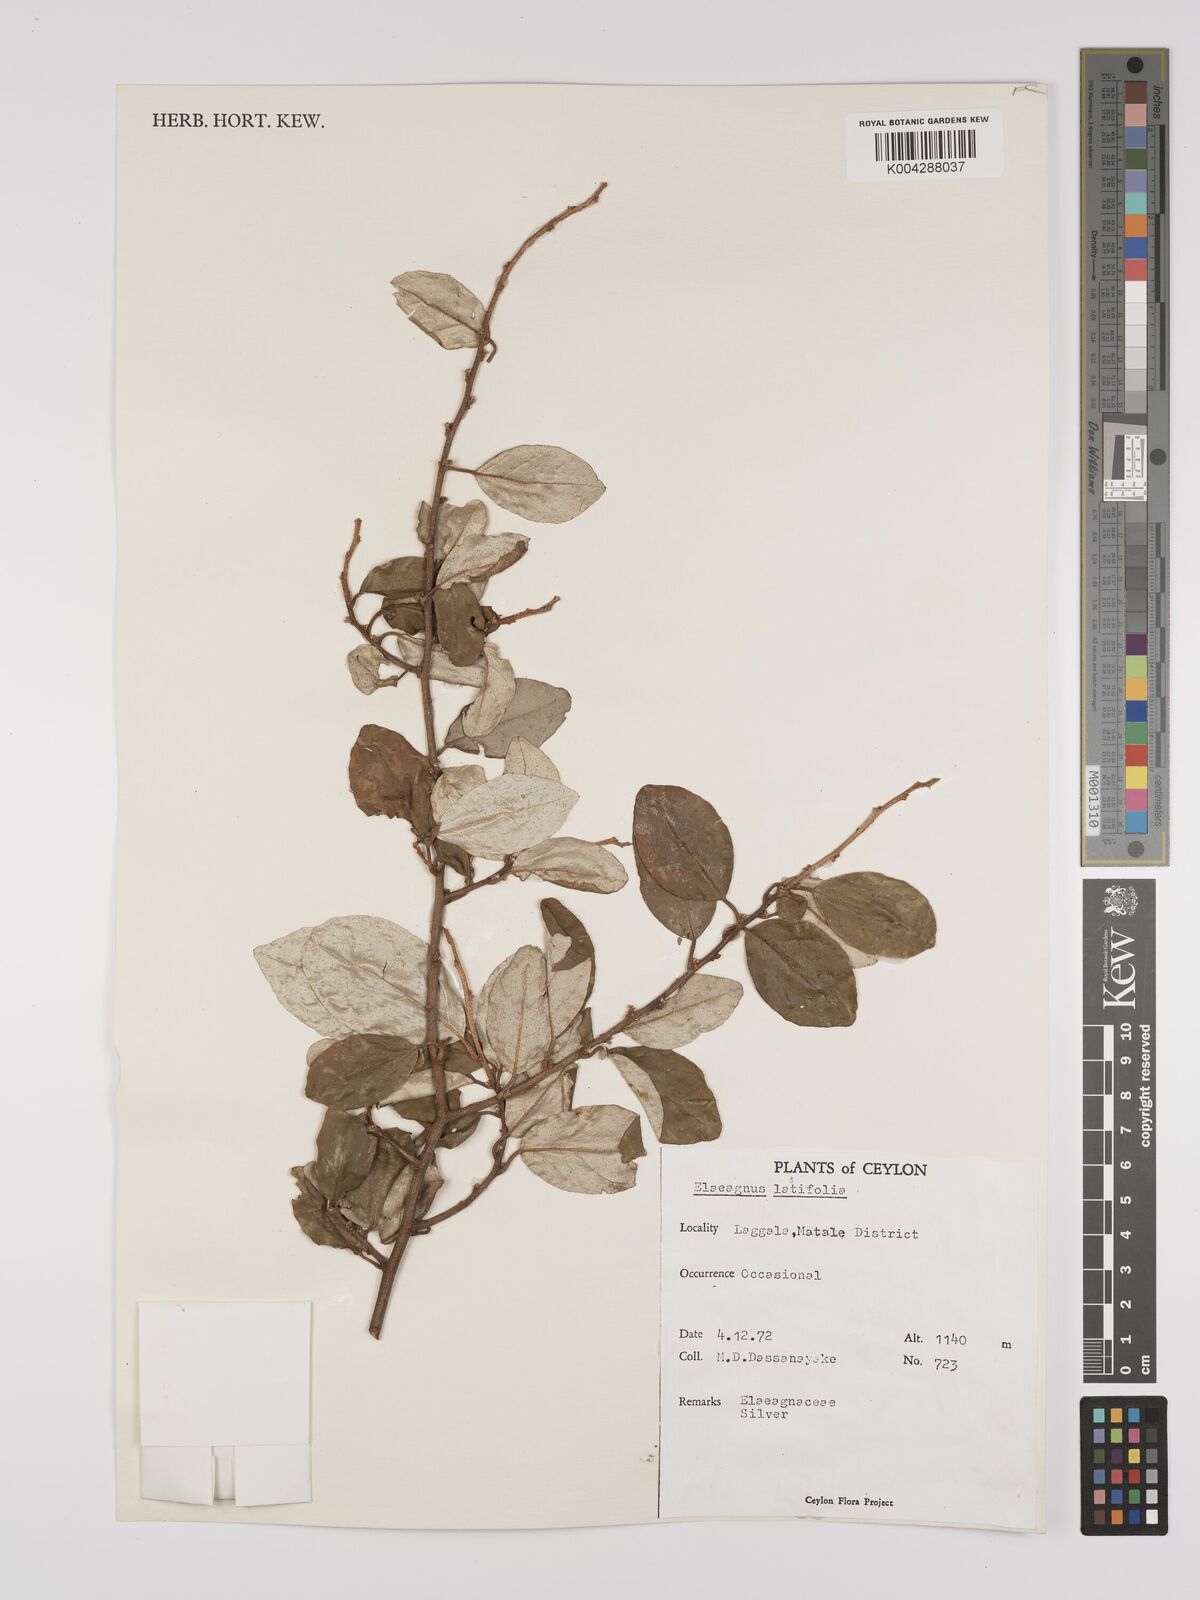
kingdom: Plantae
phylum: Tracheophyta
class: Magnoliopsida
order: Rosales
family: Elaeagnaceae
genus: Elaeagnus
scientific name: Elaeagnus latifolia
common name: Oleaster
